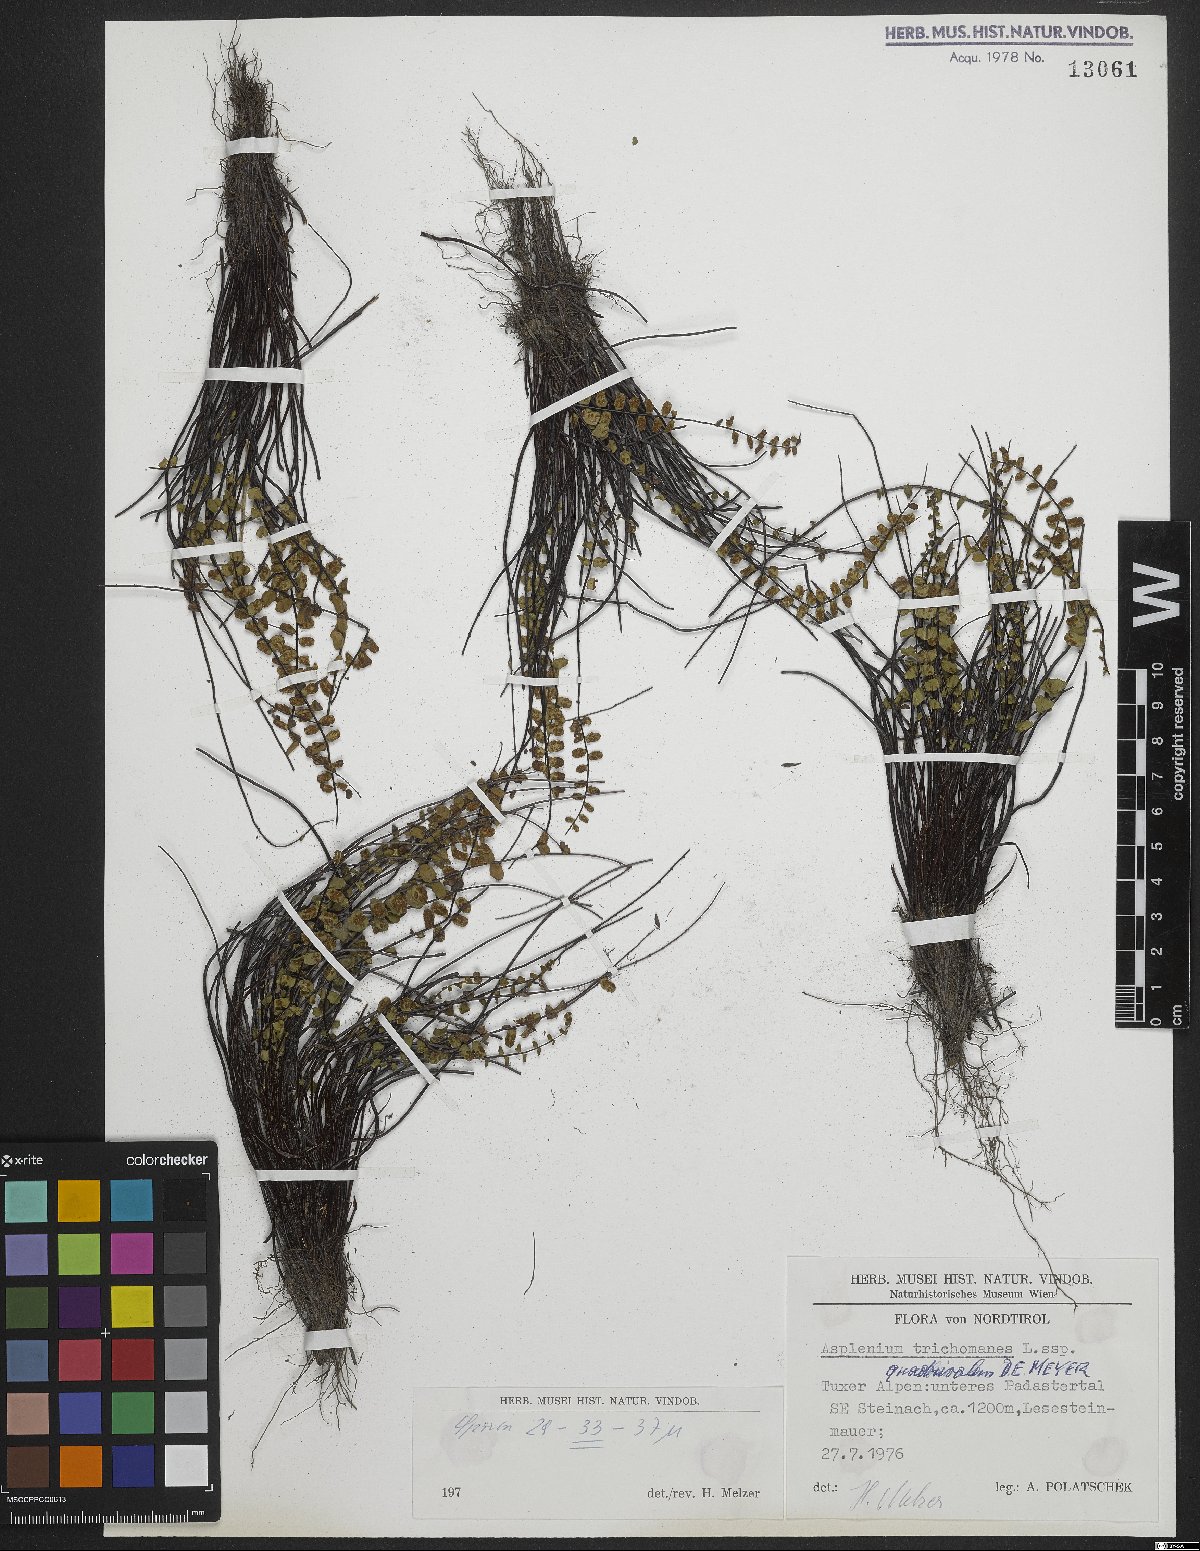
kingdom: Plantae
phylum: Tracheophyta
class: Polypodiopsida
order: Polypodiales
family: Aspleniaceae
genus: Asplenium
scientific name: Asplenium quadrivalens
